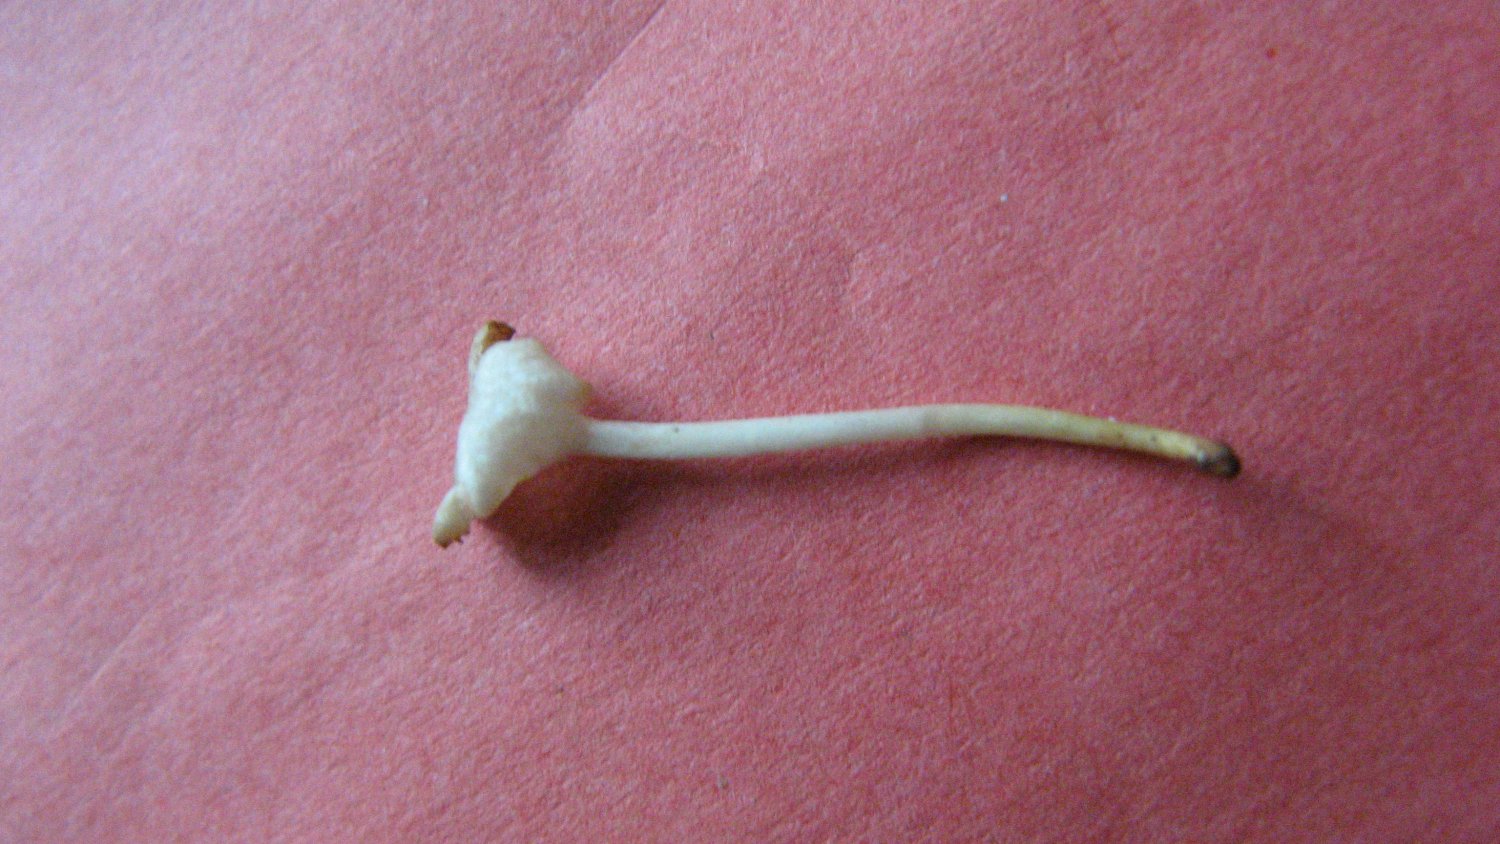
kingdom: Fungi
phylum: Basidiomycota
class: Agaricomycetes
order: Agaricales
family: Tricholomataceae
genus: Delicatula
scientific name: Delicatula integrella
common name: slørhuesvamp
